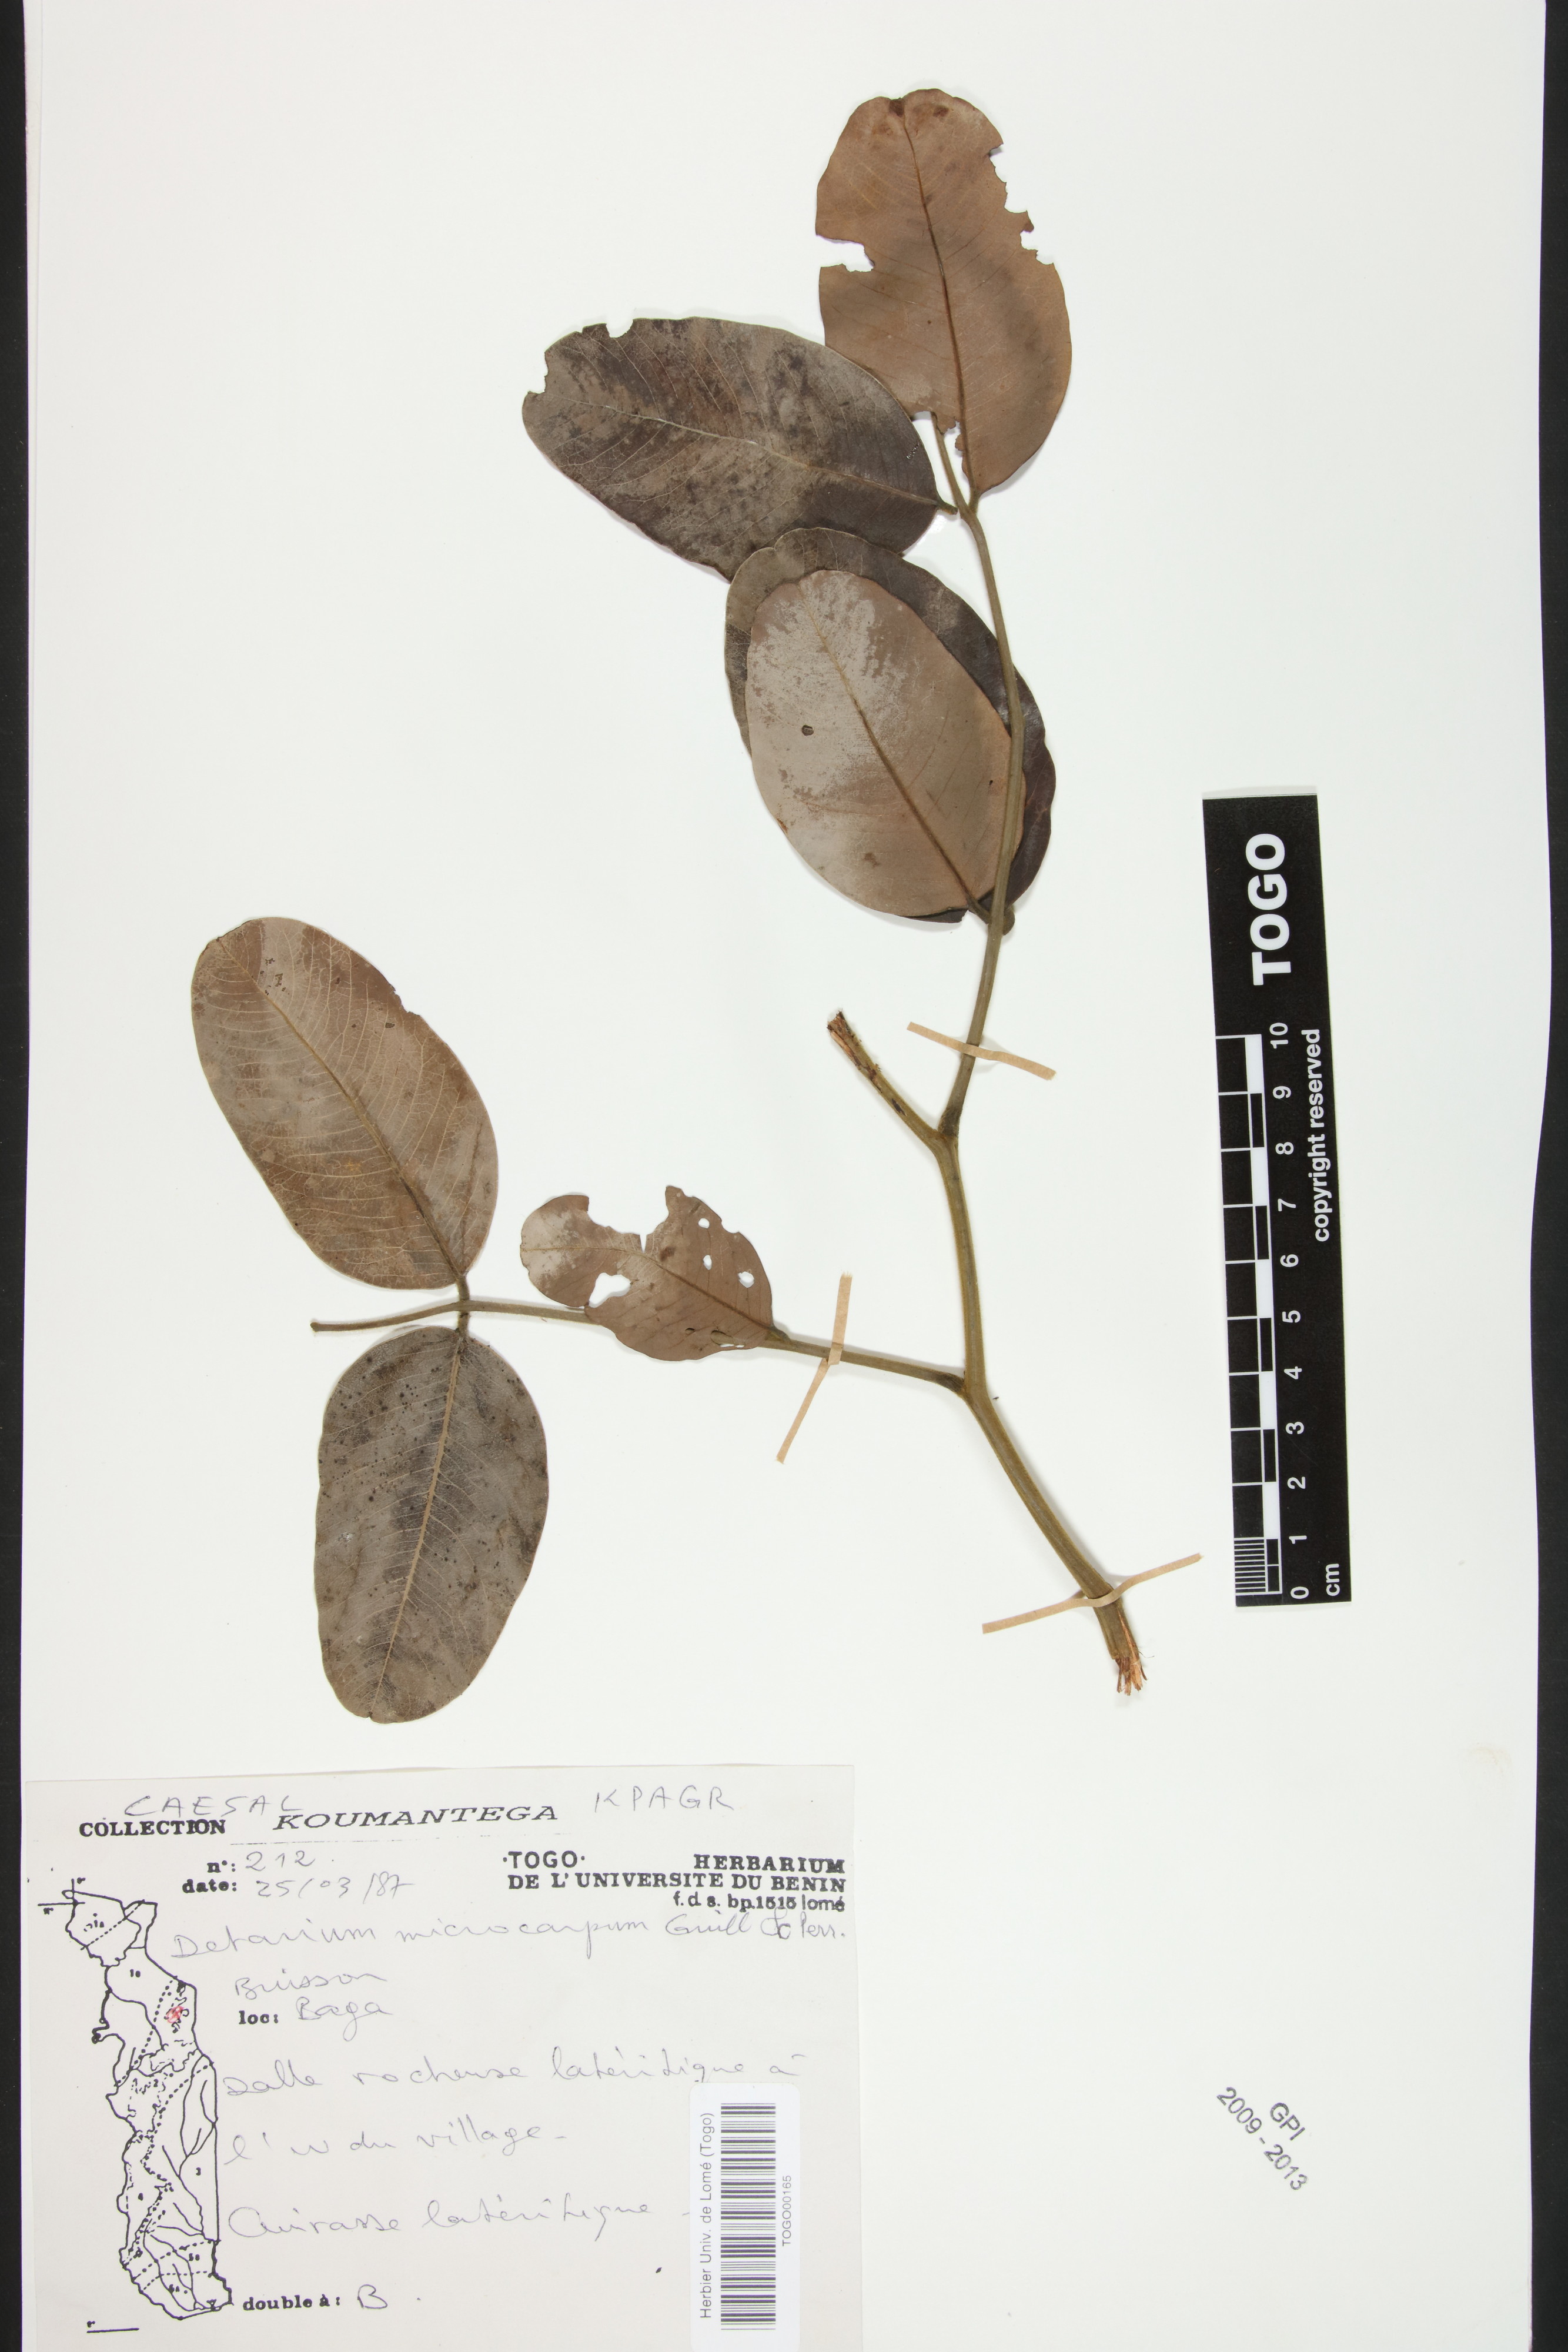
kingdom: Plantae
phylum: Tracheophyta
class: Magnoliopsida
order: Fabales
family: Fabaceae
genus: Detarium
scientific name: Detarium microcarpum
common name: Sweet dattock
